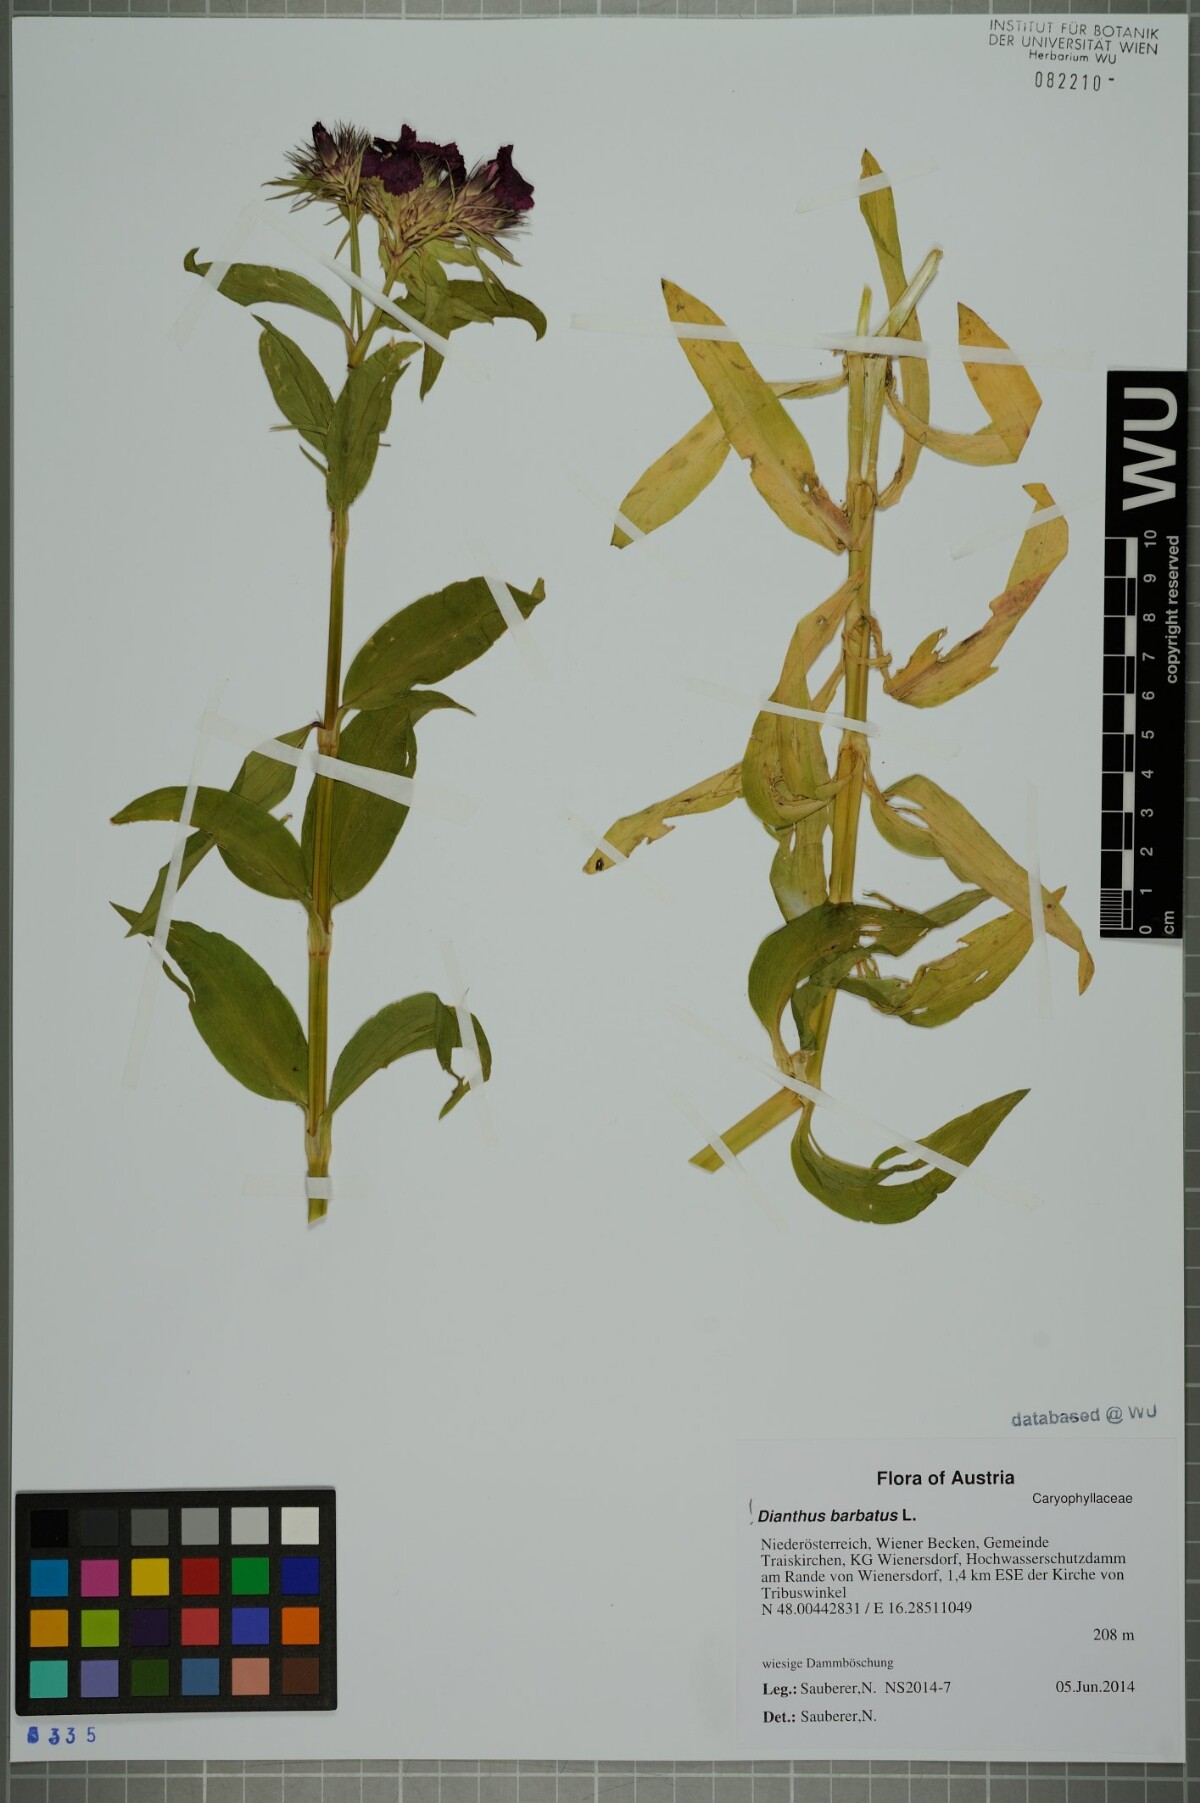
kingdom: Plantae
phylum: Tracheophyta
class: Magnoliopsida
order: Caryophyllales
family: Caryophyllaceae
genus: Dianthus
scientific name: Dianthus barbatus
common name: Sweet-william
